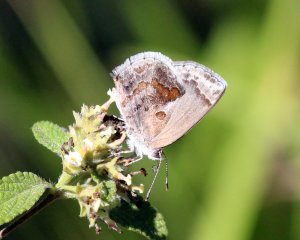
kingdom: Animalia
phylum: Arthropoda
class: Insecta
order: Lepidoptera
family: Lycaenidae
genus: Strymon
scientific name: Strymon bazochii
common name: Lantana Scrub-Hairstreak
